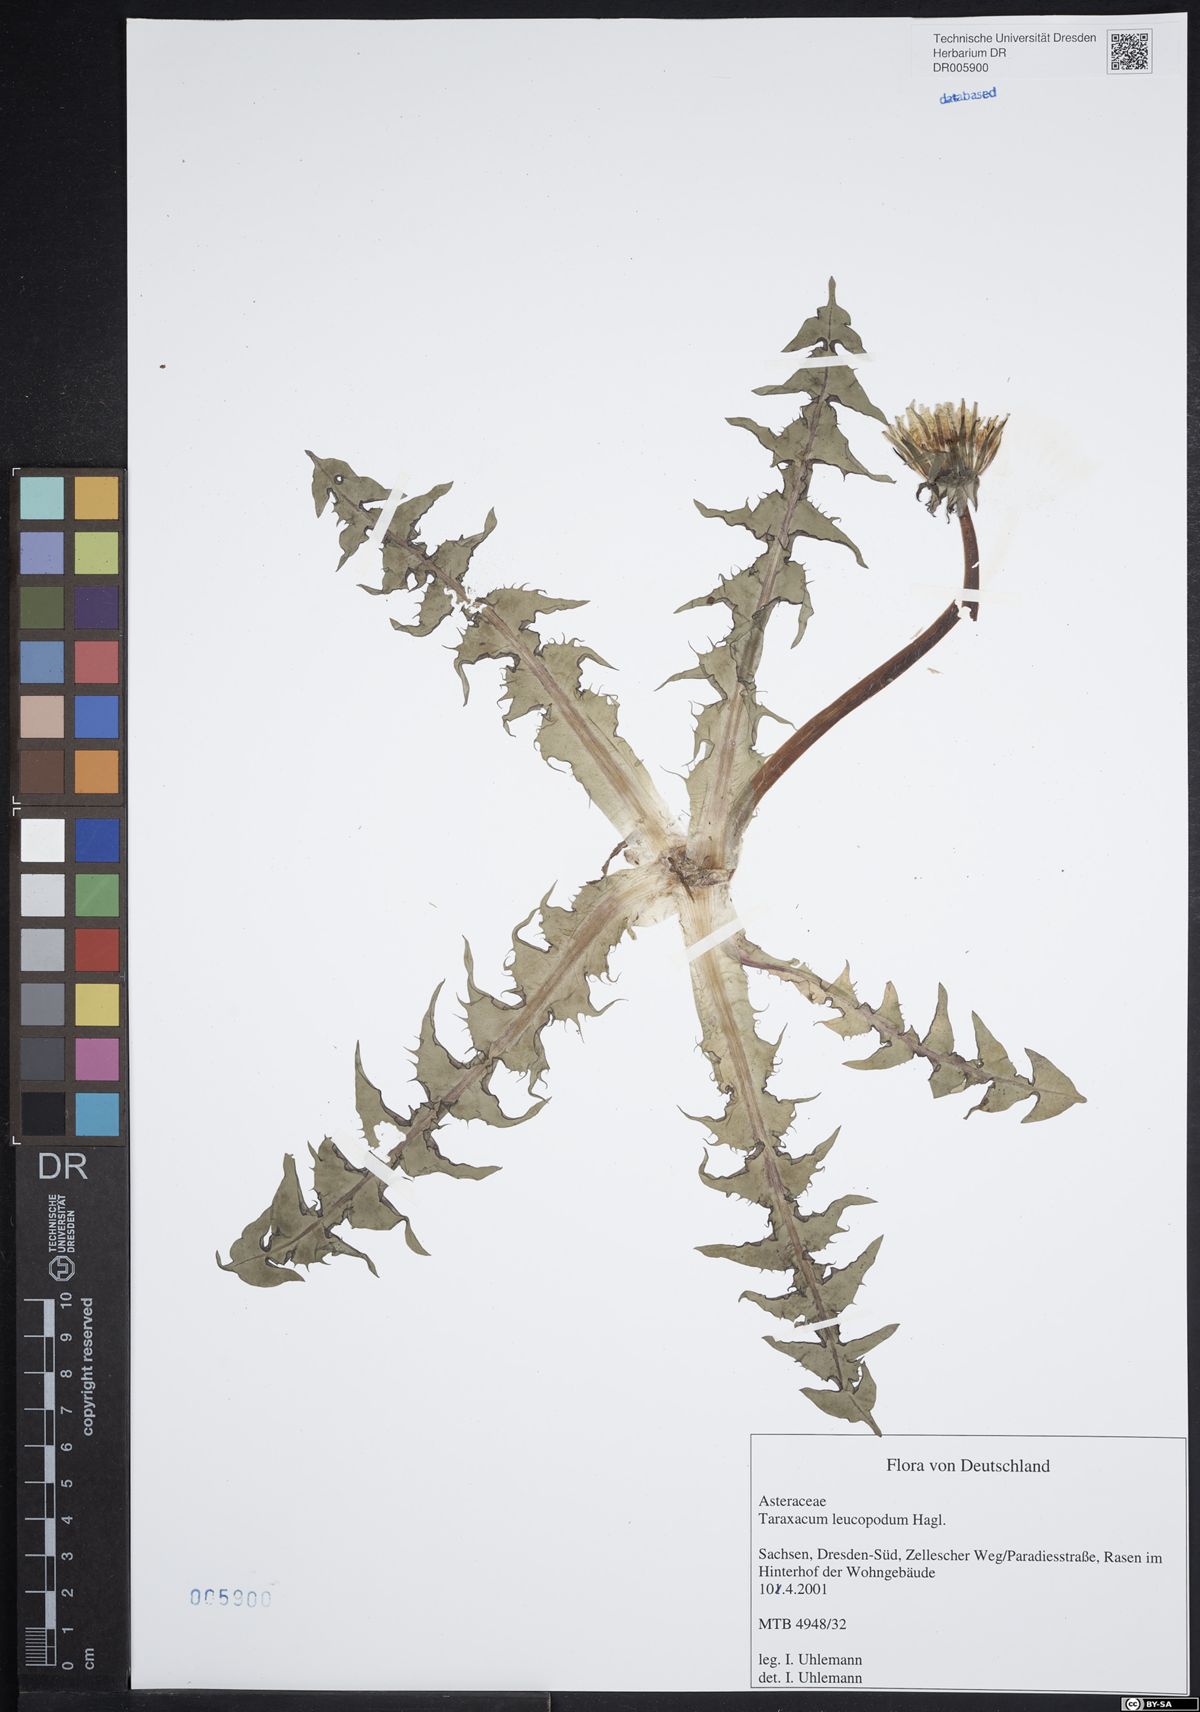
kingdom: Plantae
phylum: Tracheophyta
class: Magnoliopsida
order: Asterales
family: Asteraceae
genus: Taraxacum
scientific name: Taraxacum leucopodum
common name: White-stalked dandelion
